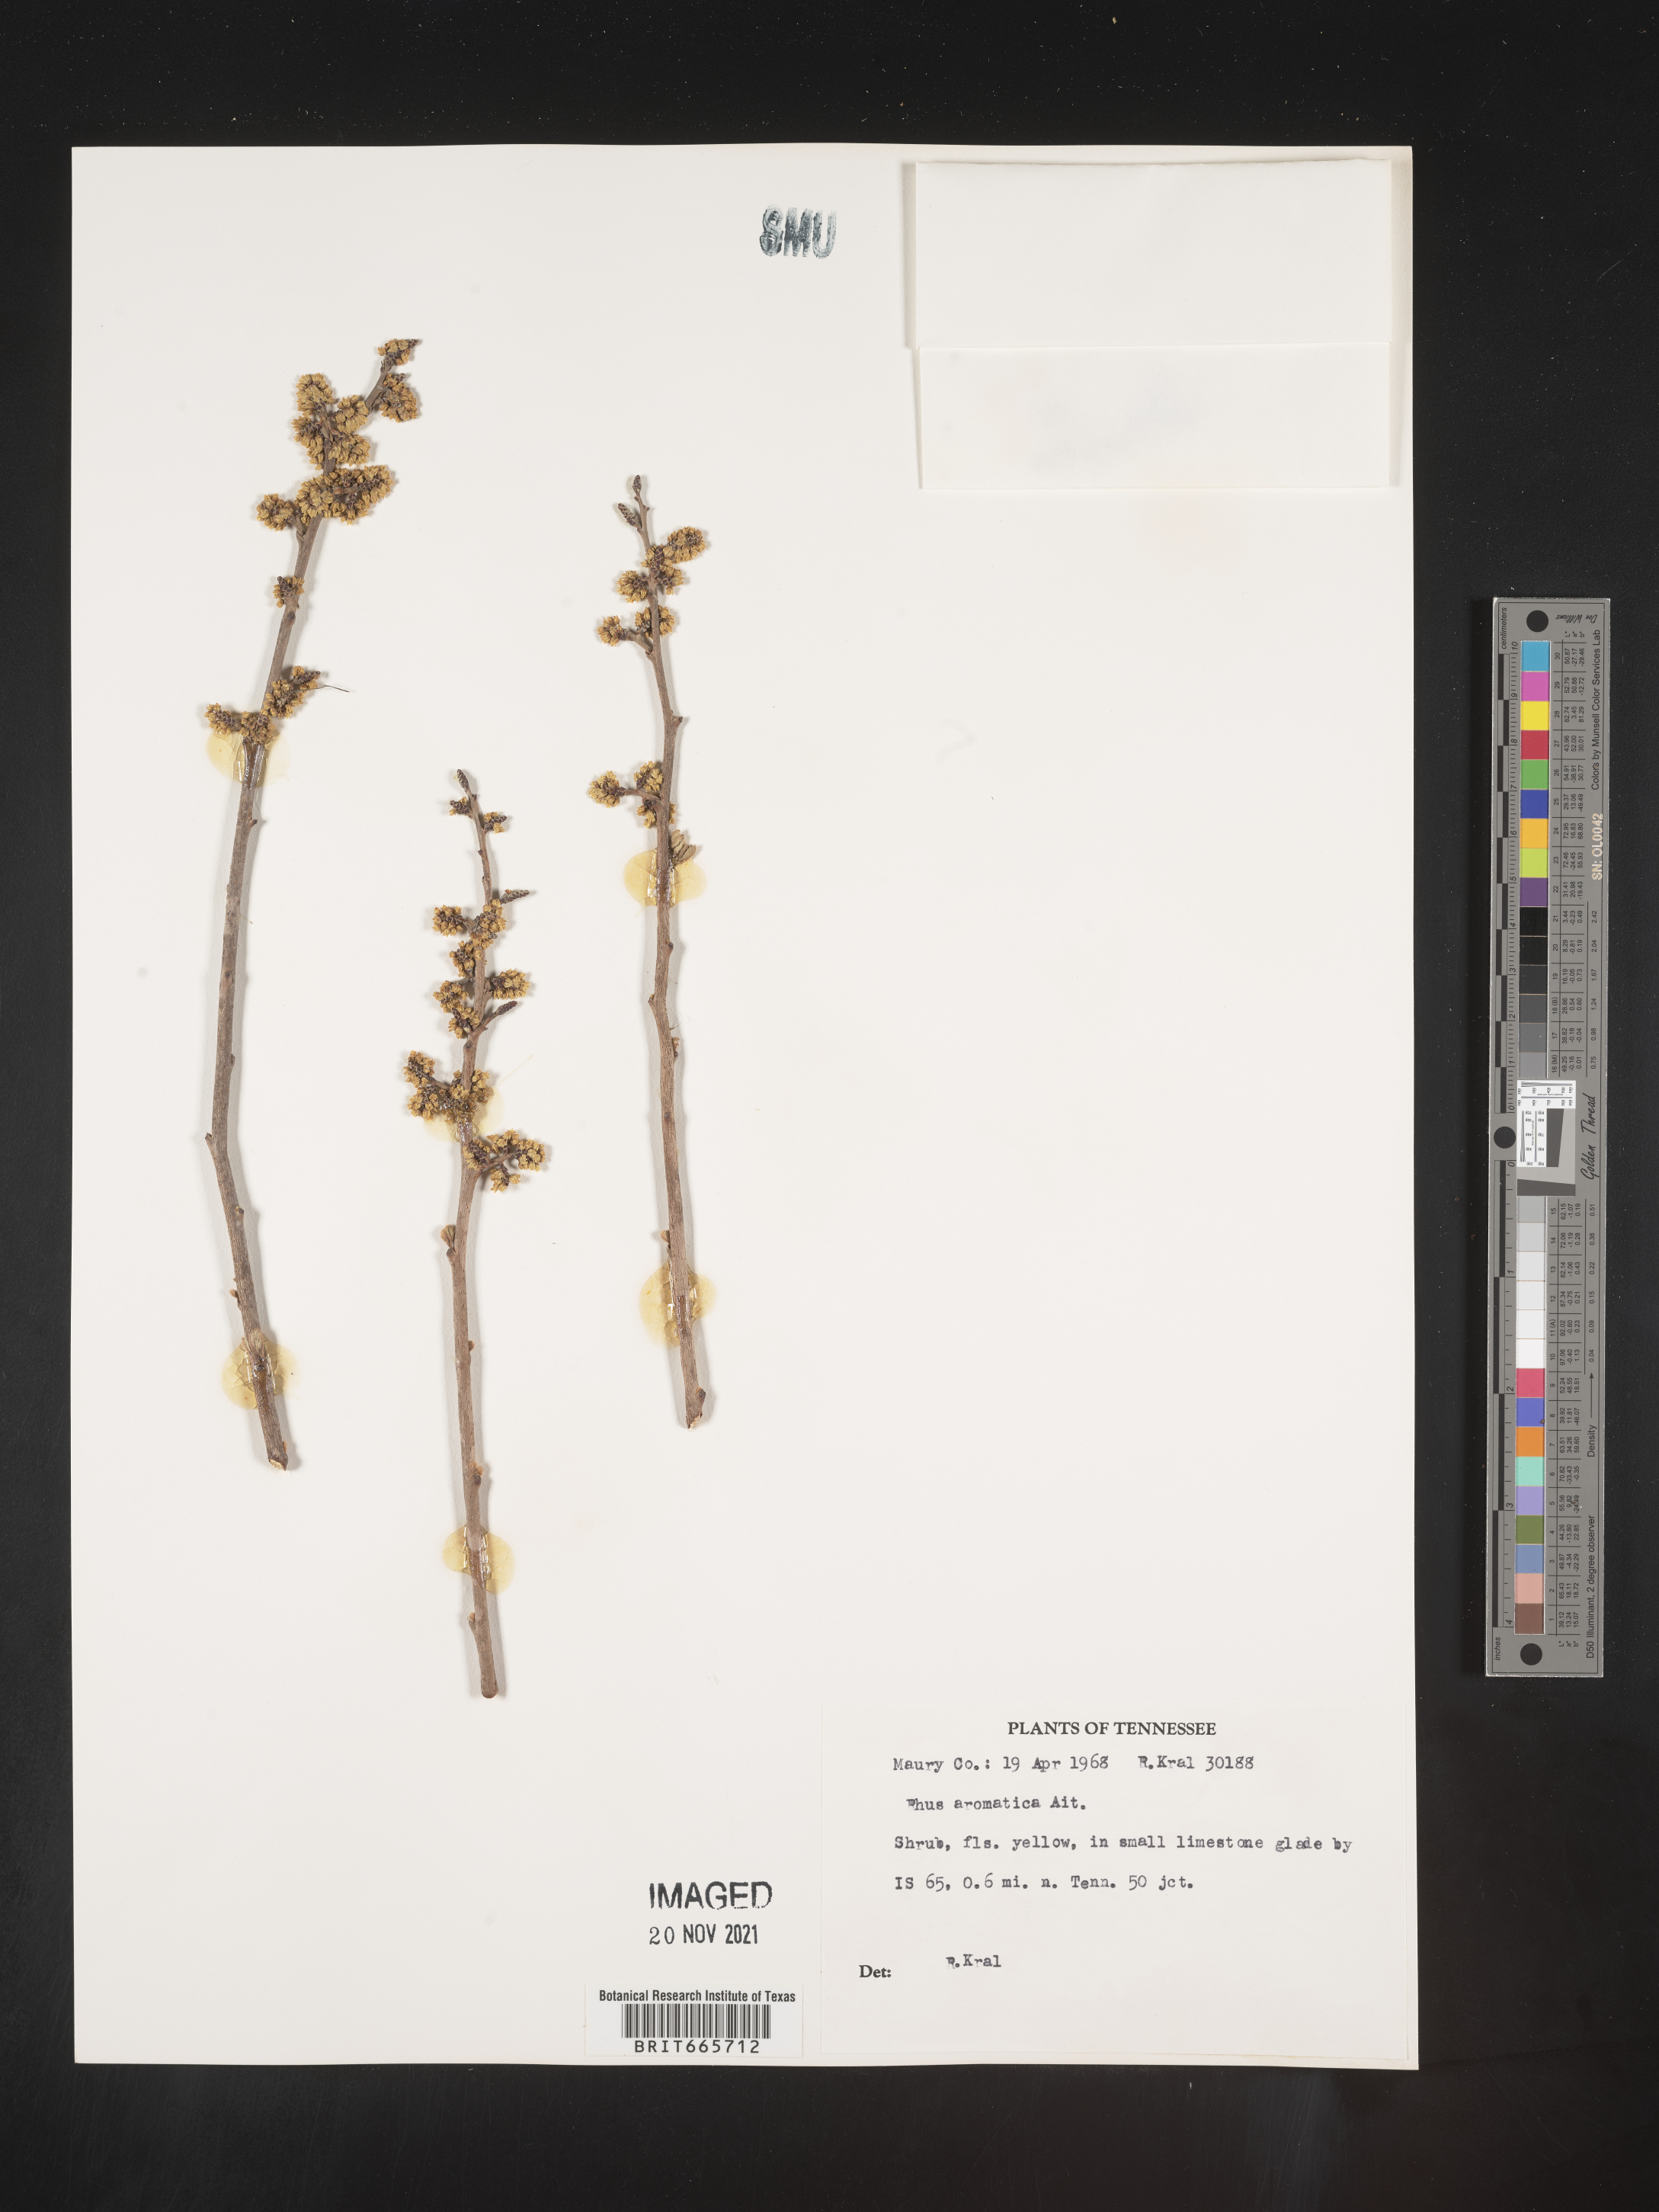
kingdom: Plantae
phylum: Tracheophyta
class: Magnoliopsida
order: Sapindales
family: Anacardiaceae
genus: Rhus
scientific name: Rhus aromatica
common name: Aromatic sumac
